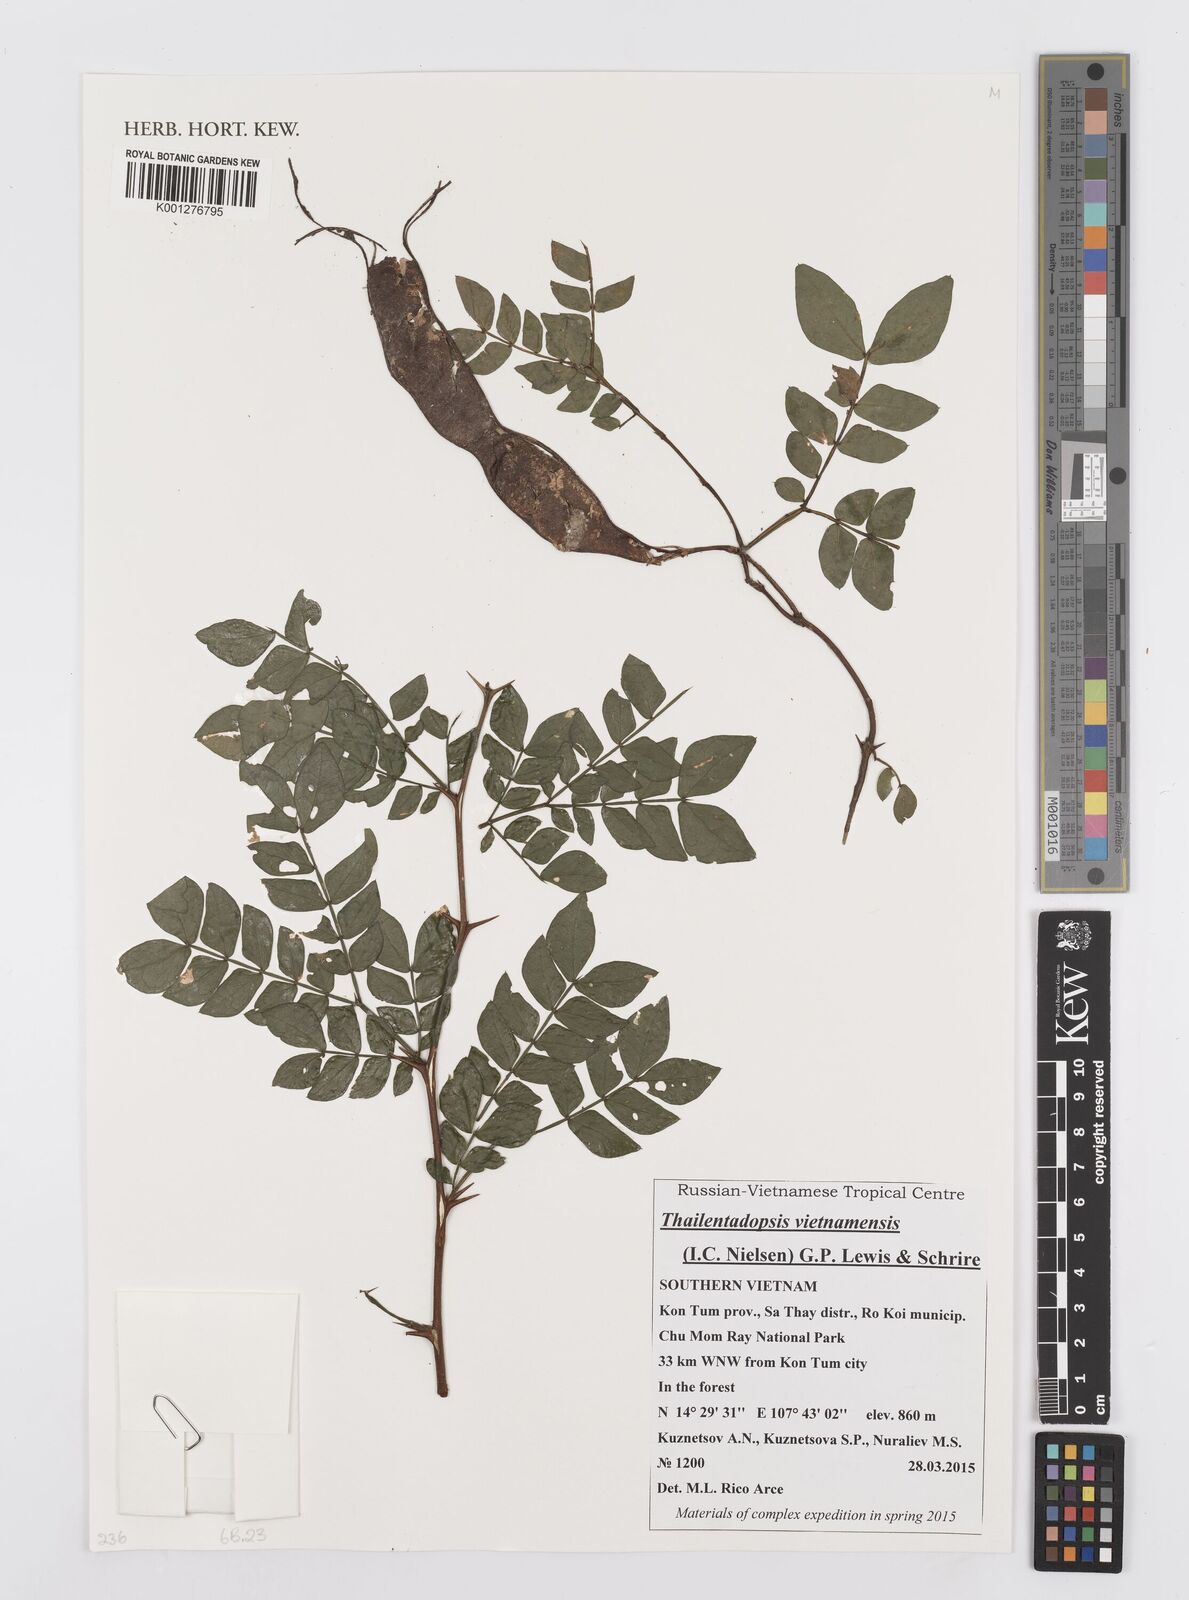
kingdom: Plantae
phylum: Tracheophyta
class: Magnoliopsida
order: Fabales
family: Fabaceae
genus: Thailentadopsis
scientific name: Thailentadopsis vietnamensis
